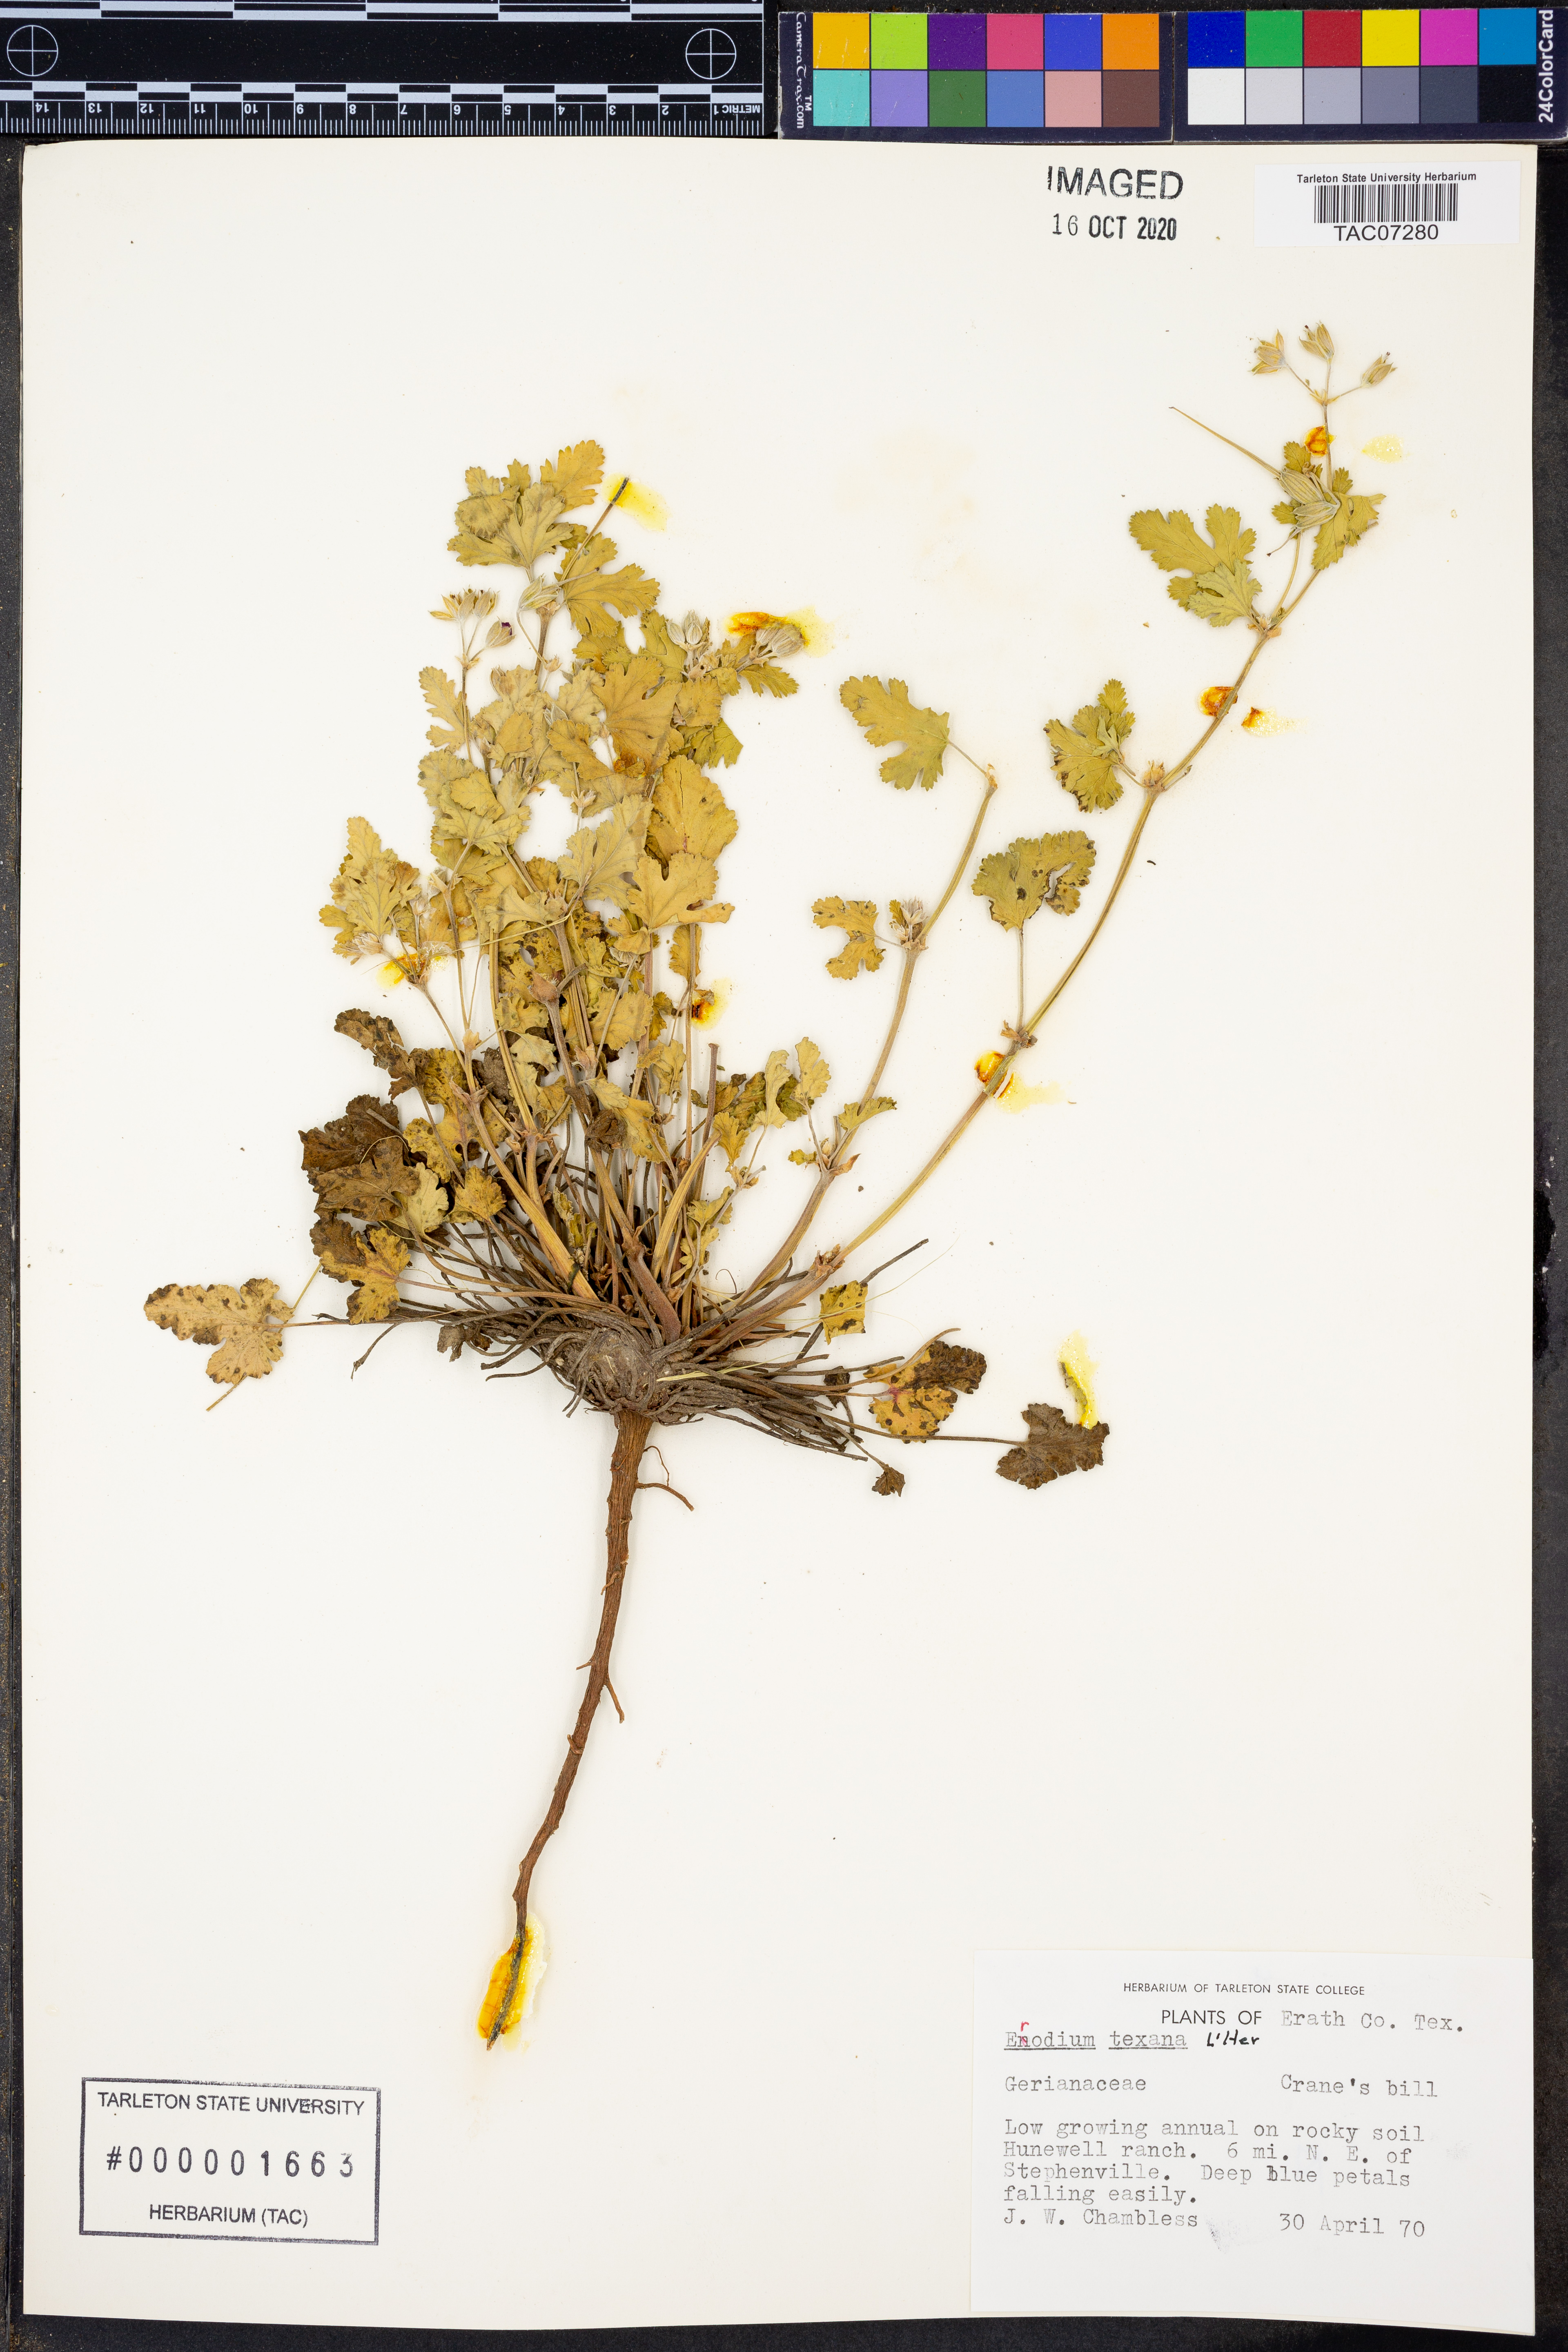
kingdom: Plantae
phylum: Tracheophyta
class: Magnoliopsida
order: Geraniales
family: Geraniaceae
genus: Erodium
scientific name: Erodium texanum
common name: Texas stork's-bill
